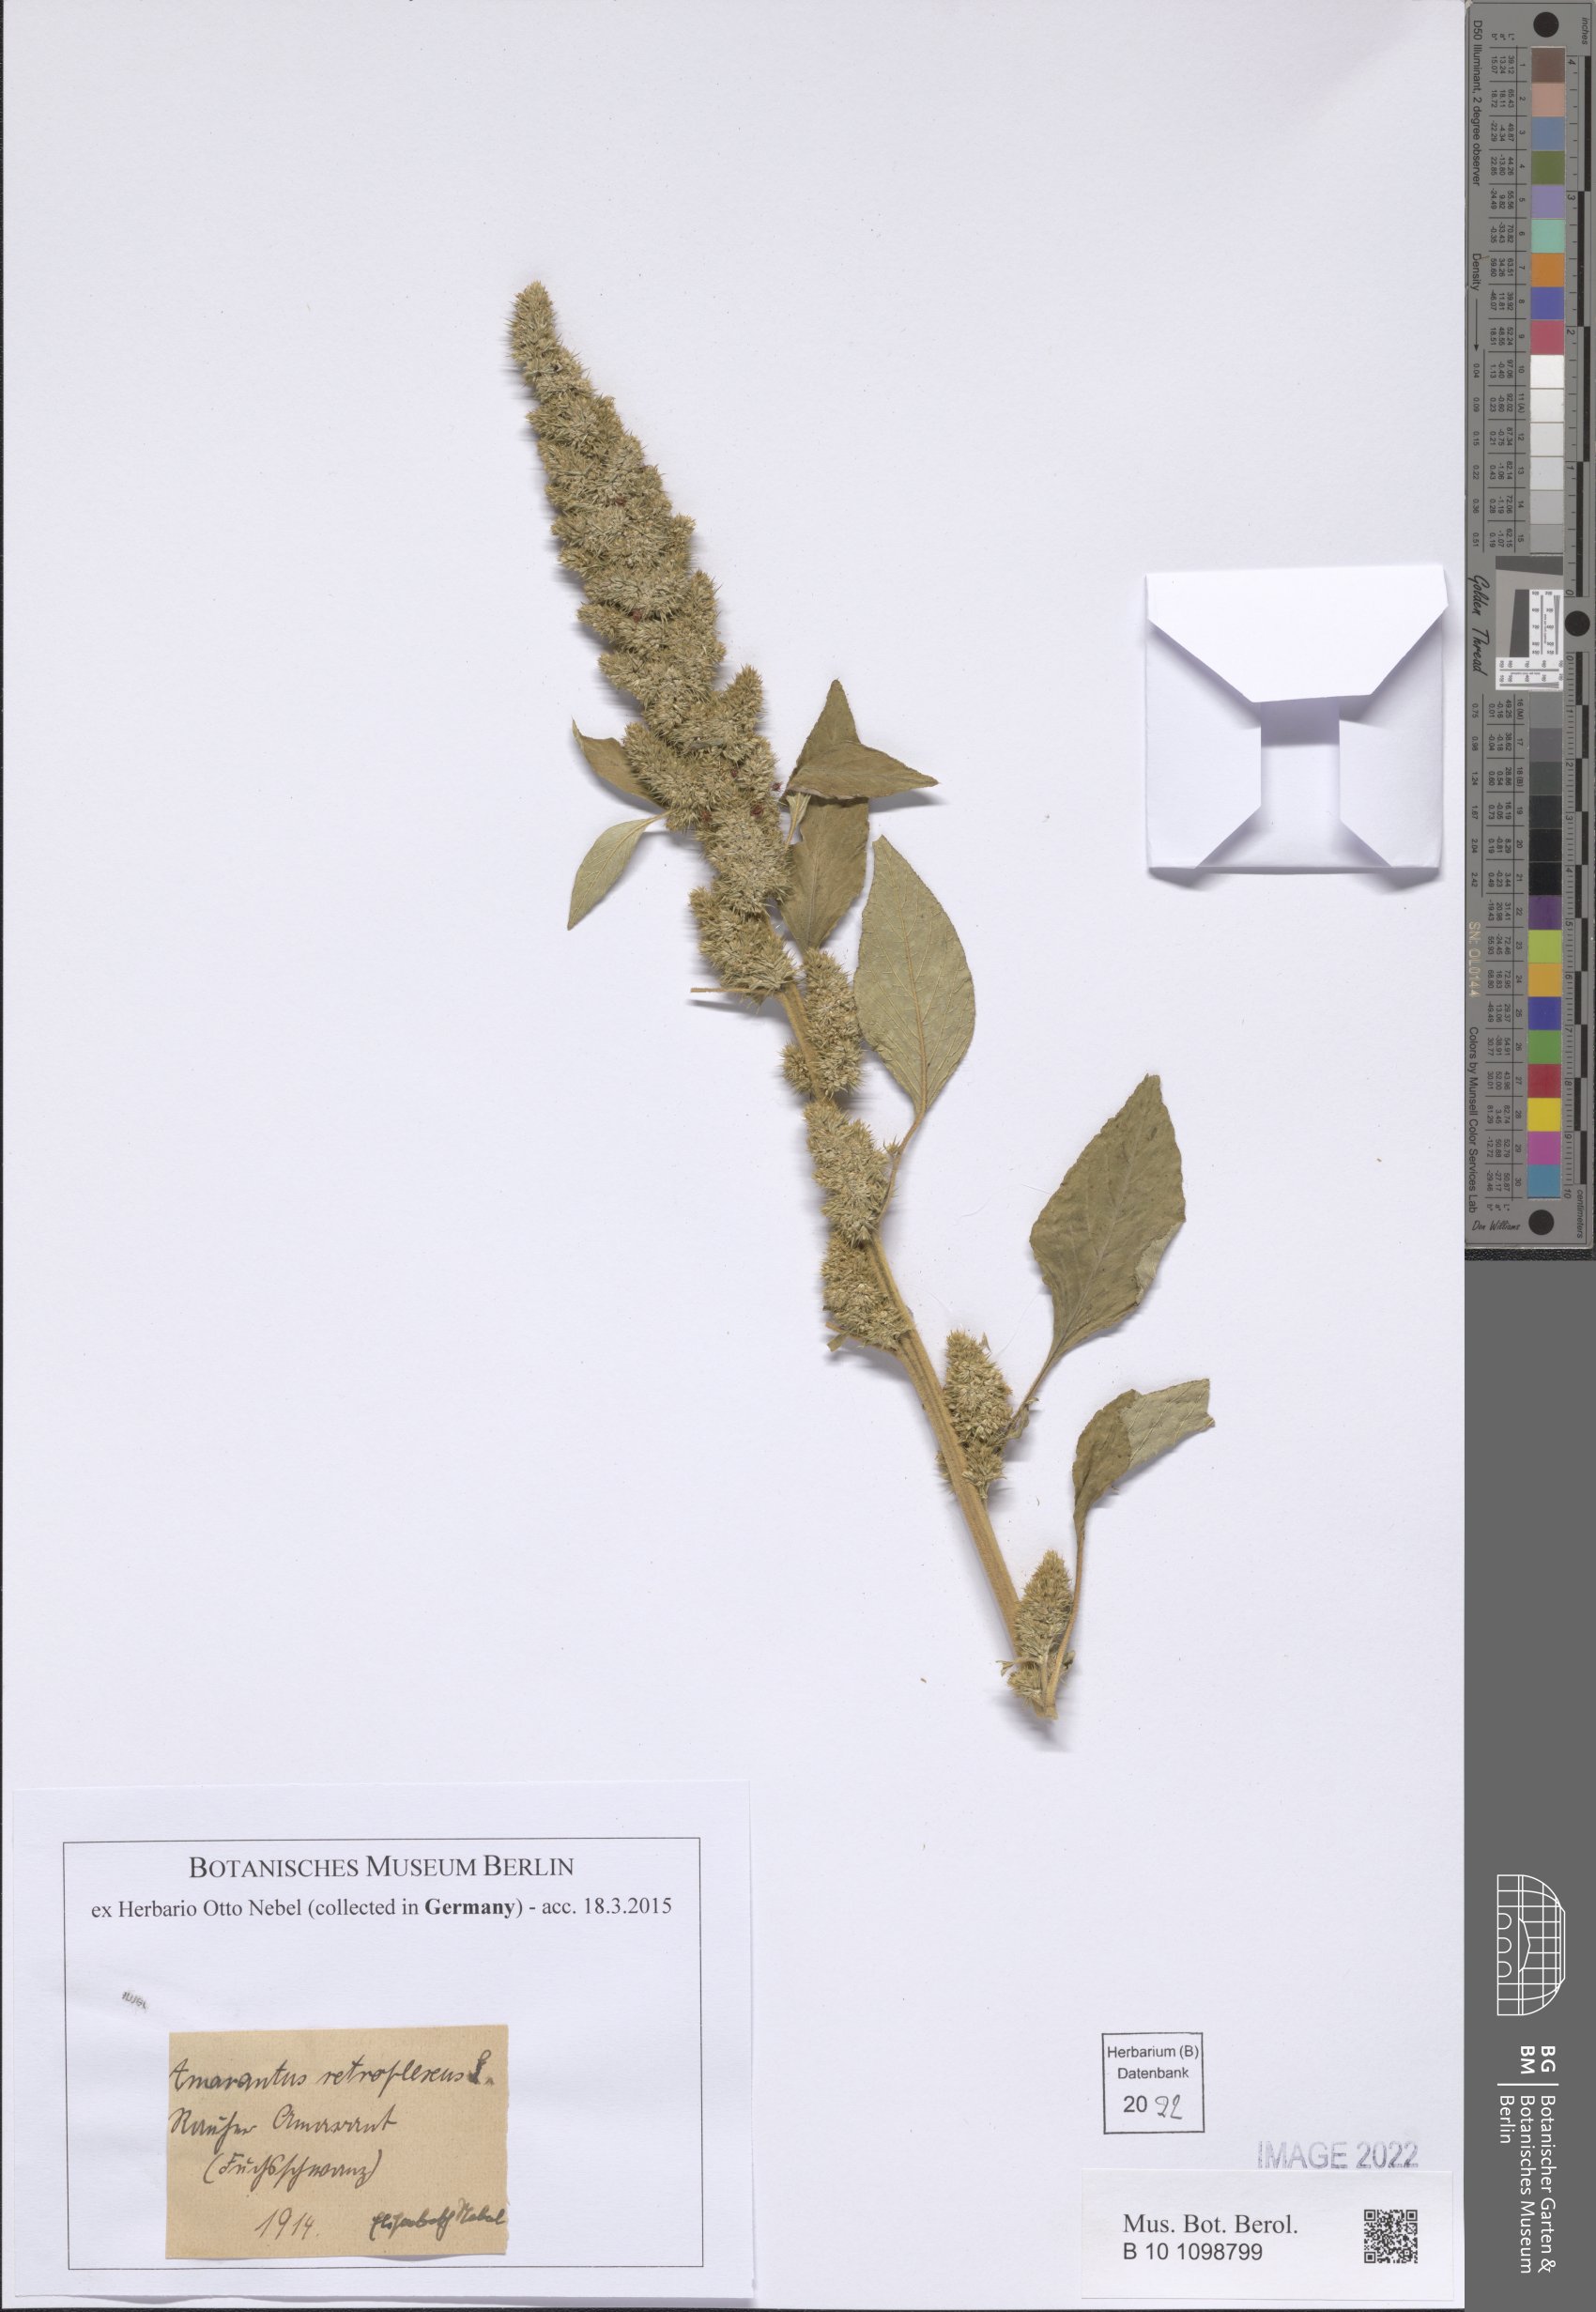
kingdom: Plantae
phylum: Tracheophyta
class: Magnoliopsida
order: Caryophyllales
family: Amaranthaceae
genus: Amaranthus
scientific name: Amaranthus retroflexus
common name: Redroot amaranth
